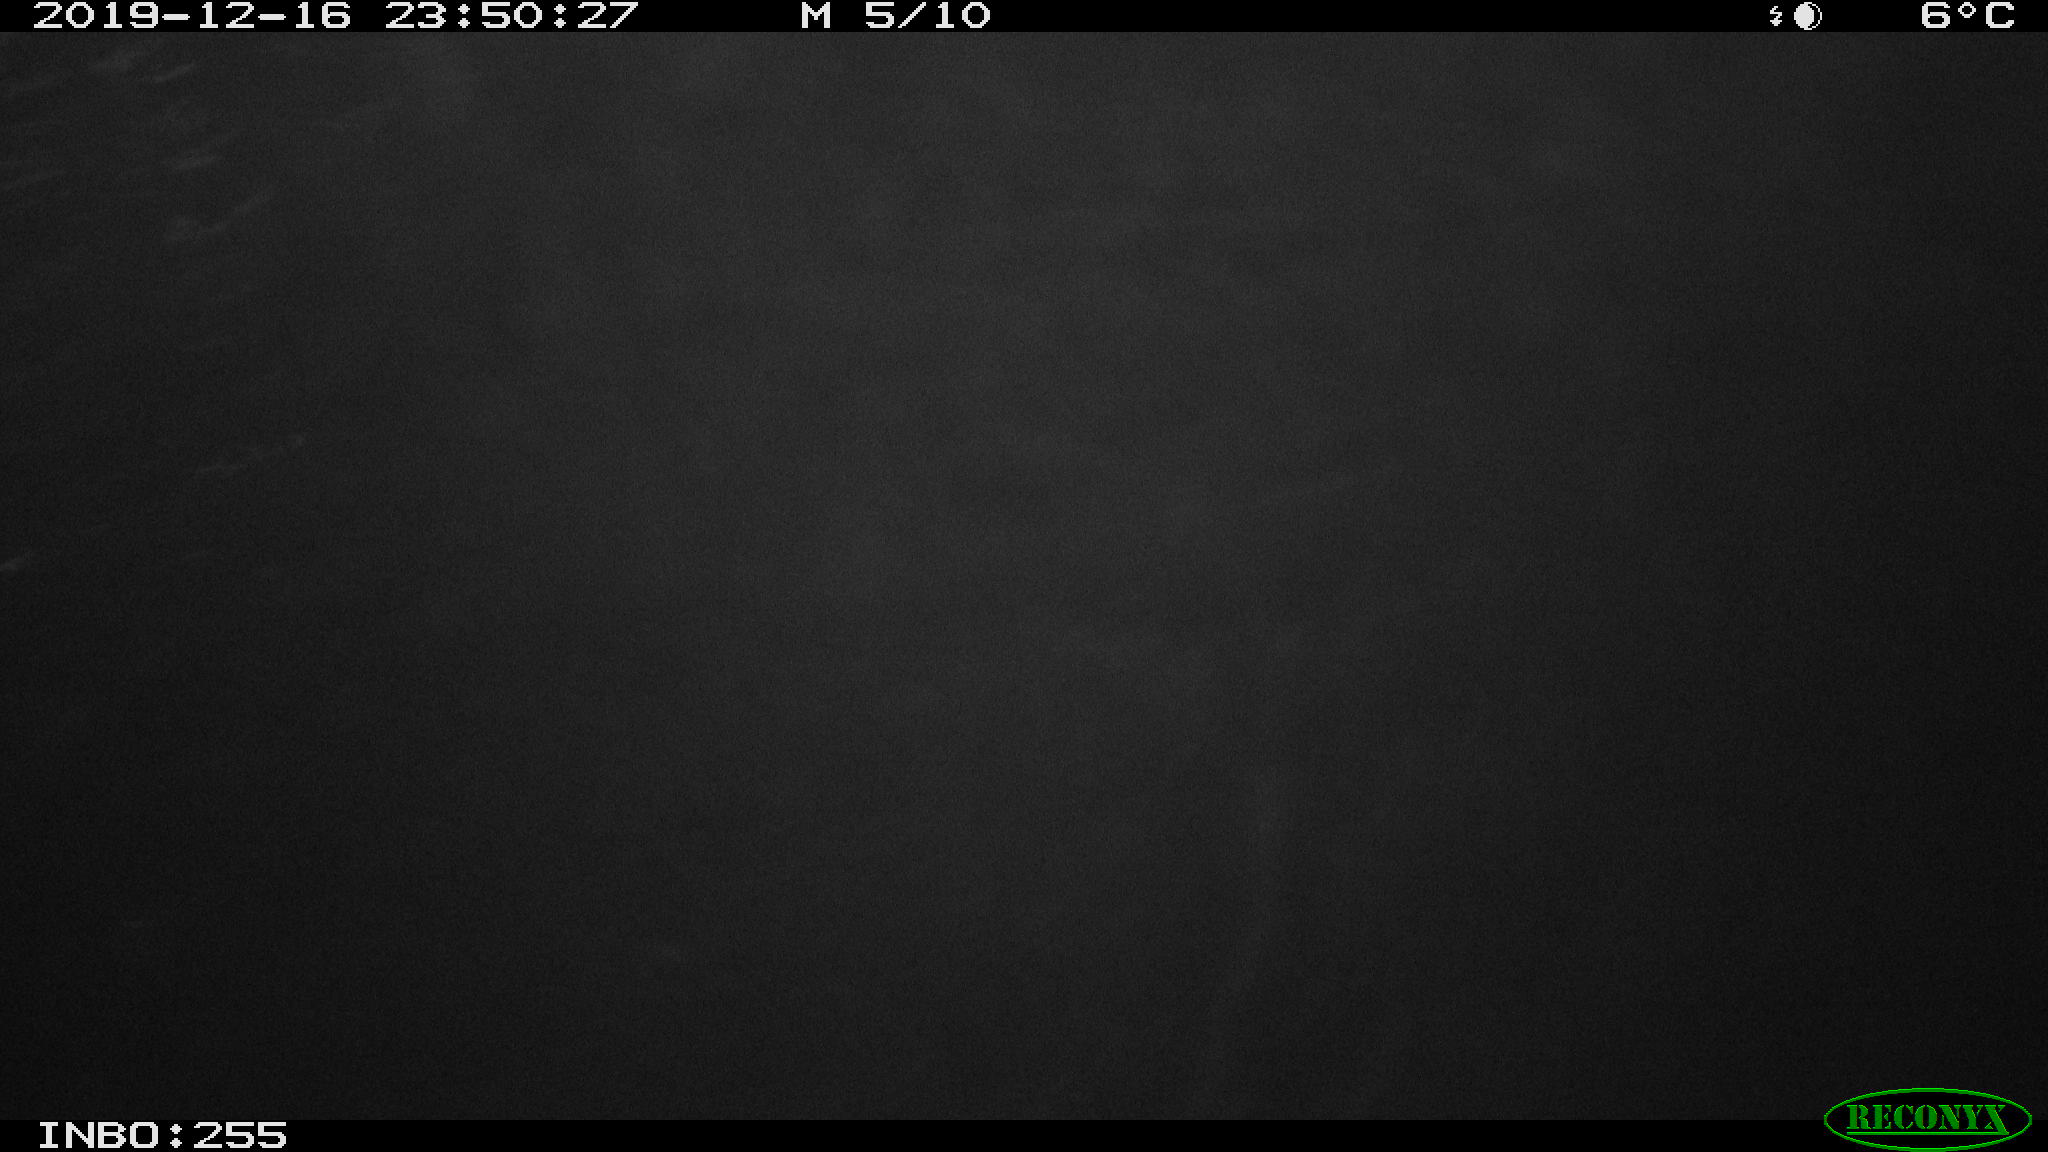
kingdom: Animalia
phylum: Chordata
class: Mammalia
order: Rodentia
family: Cricetidae
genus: Ondatra
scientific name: Ondatra zibethicus
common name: Muskrat
